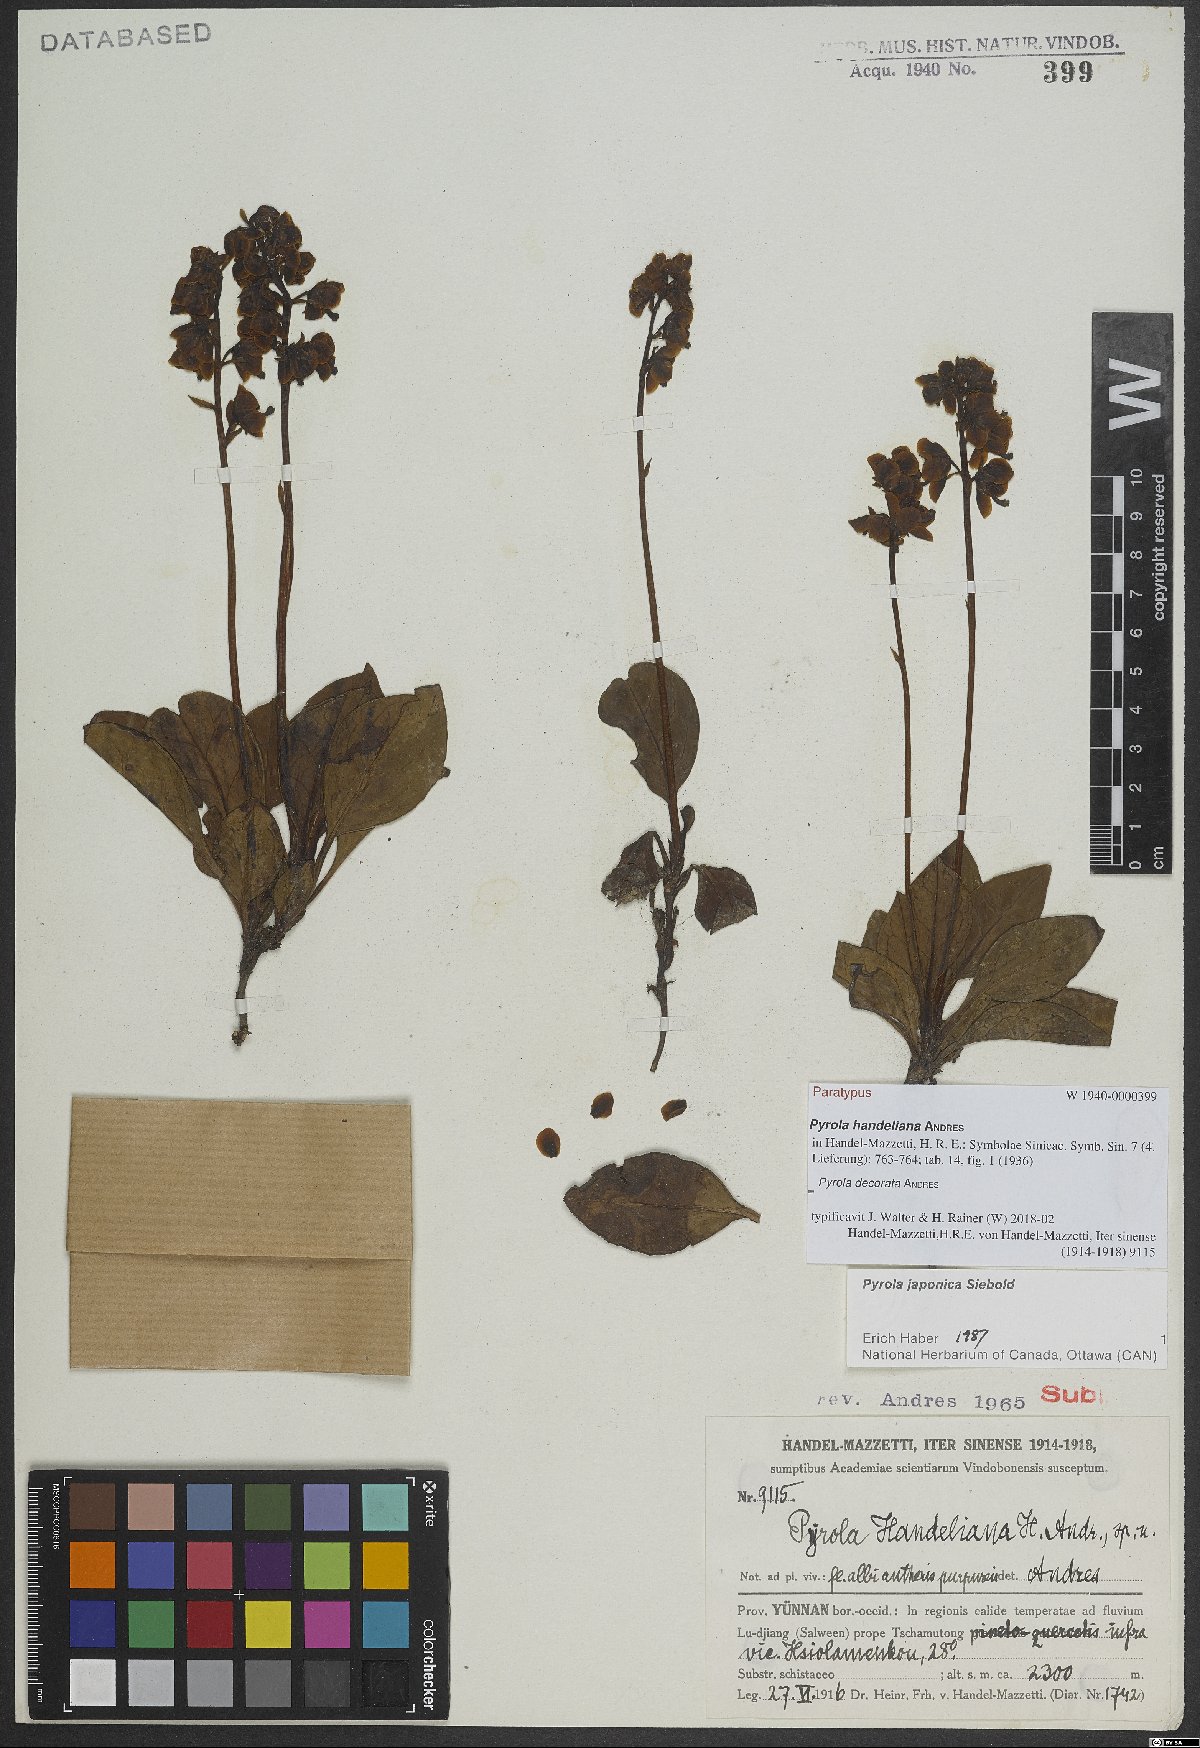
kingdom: Plantae
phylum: Tracheophyta
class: Magnoliopsida
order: Ericales
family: Ericaceae
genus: Pyrola
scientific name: Pyrola decorata
